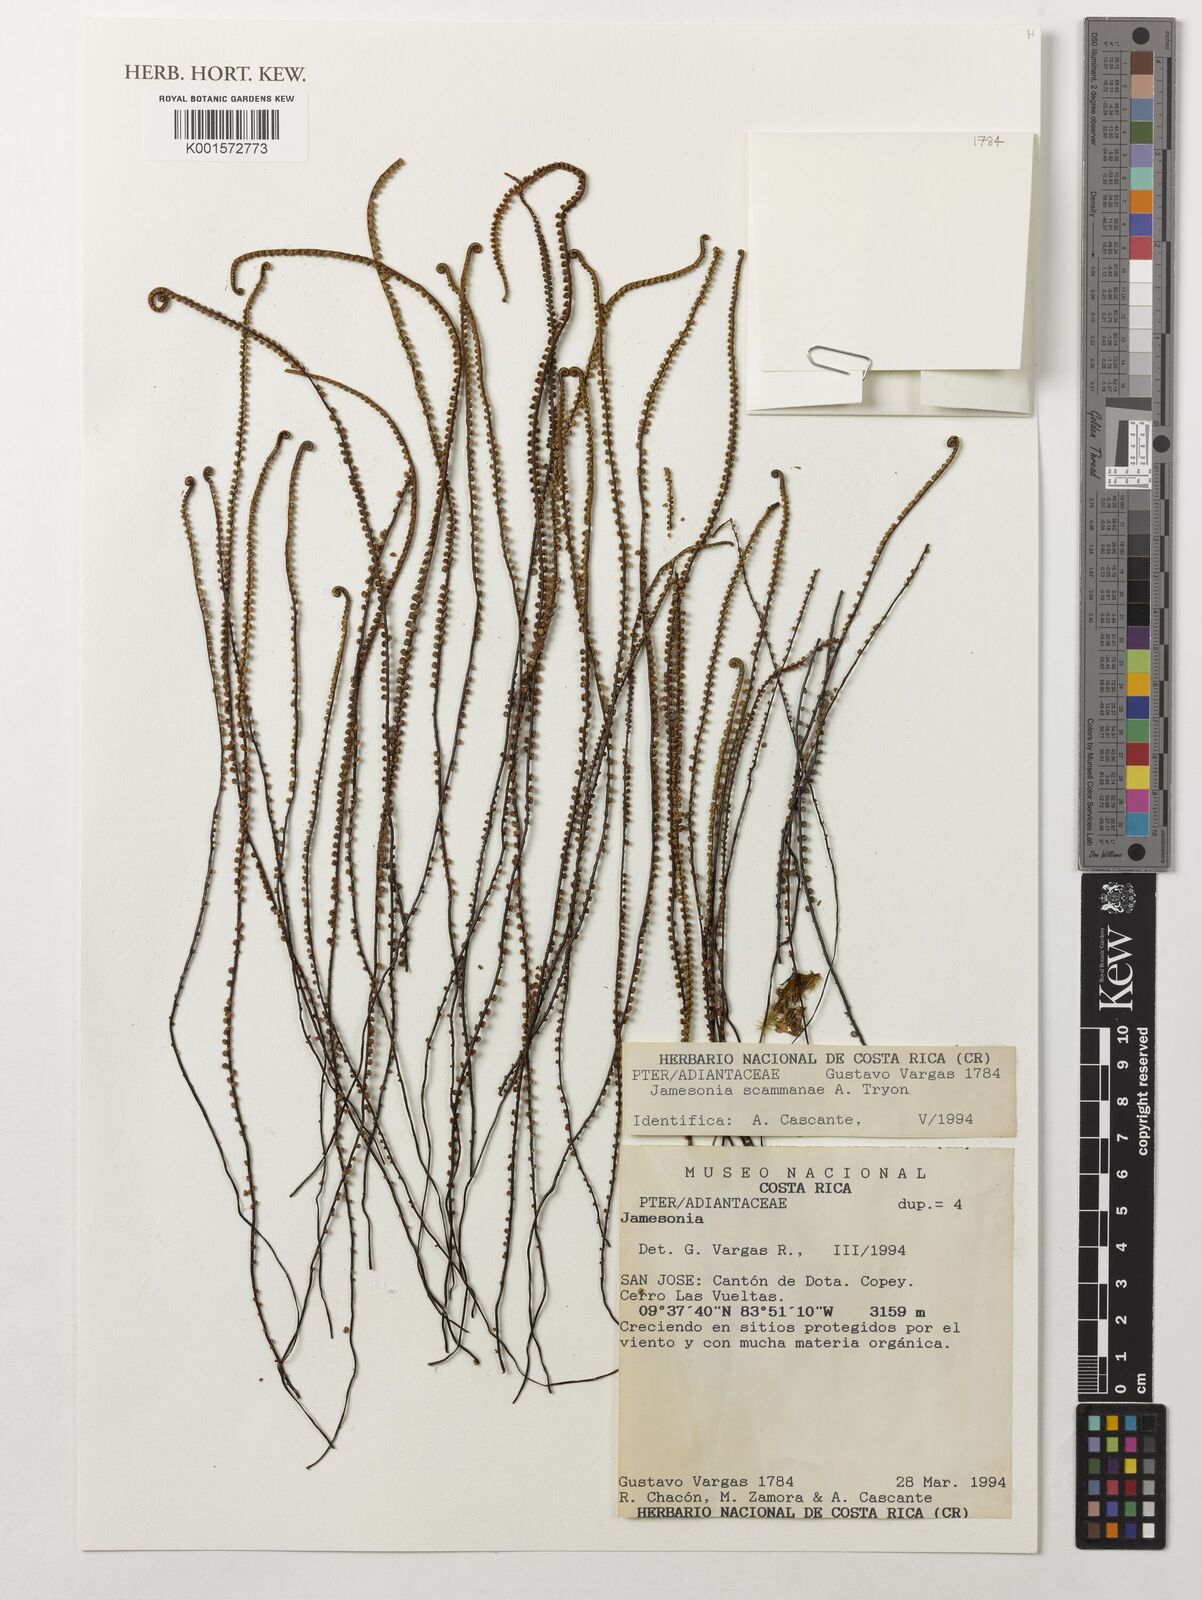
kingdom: Plantae
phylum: Tracheophyta
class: Polypodiopsida
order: Polypodiales
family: Pteridaceae
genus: Jamesonia
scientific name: Jamesonia scammanae
